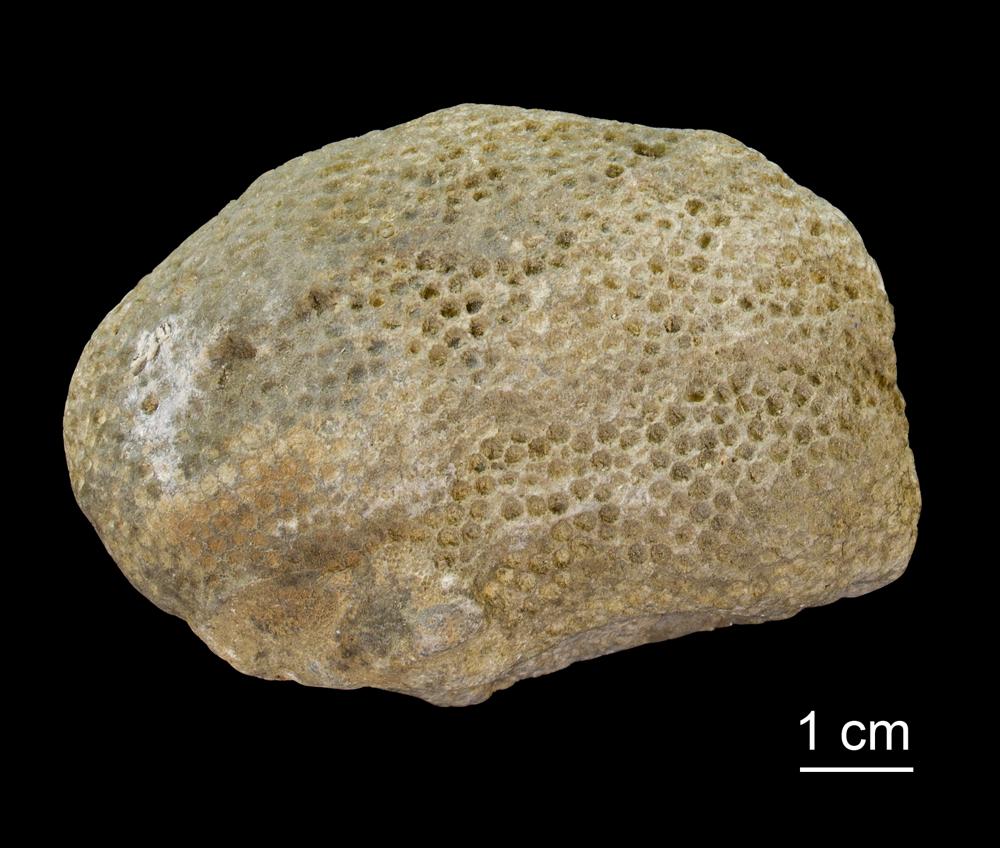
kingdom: Animalia
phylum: Xenacoelomorpha
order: Acoela
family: Proporidae
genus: Propora
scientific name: Propora
